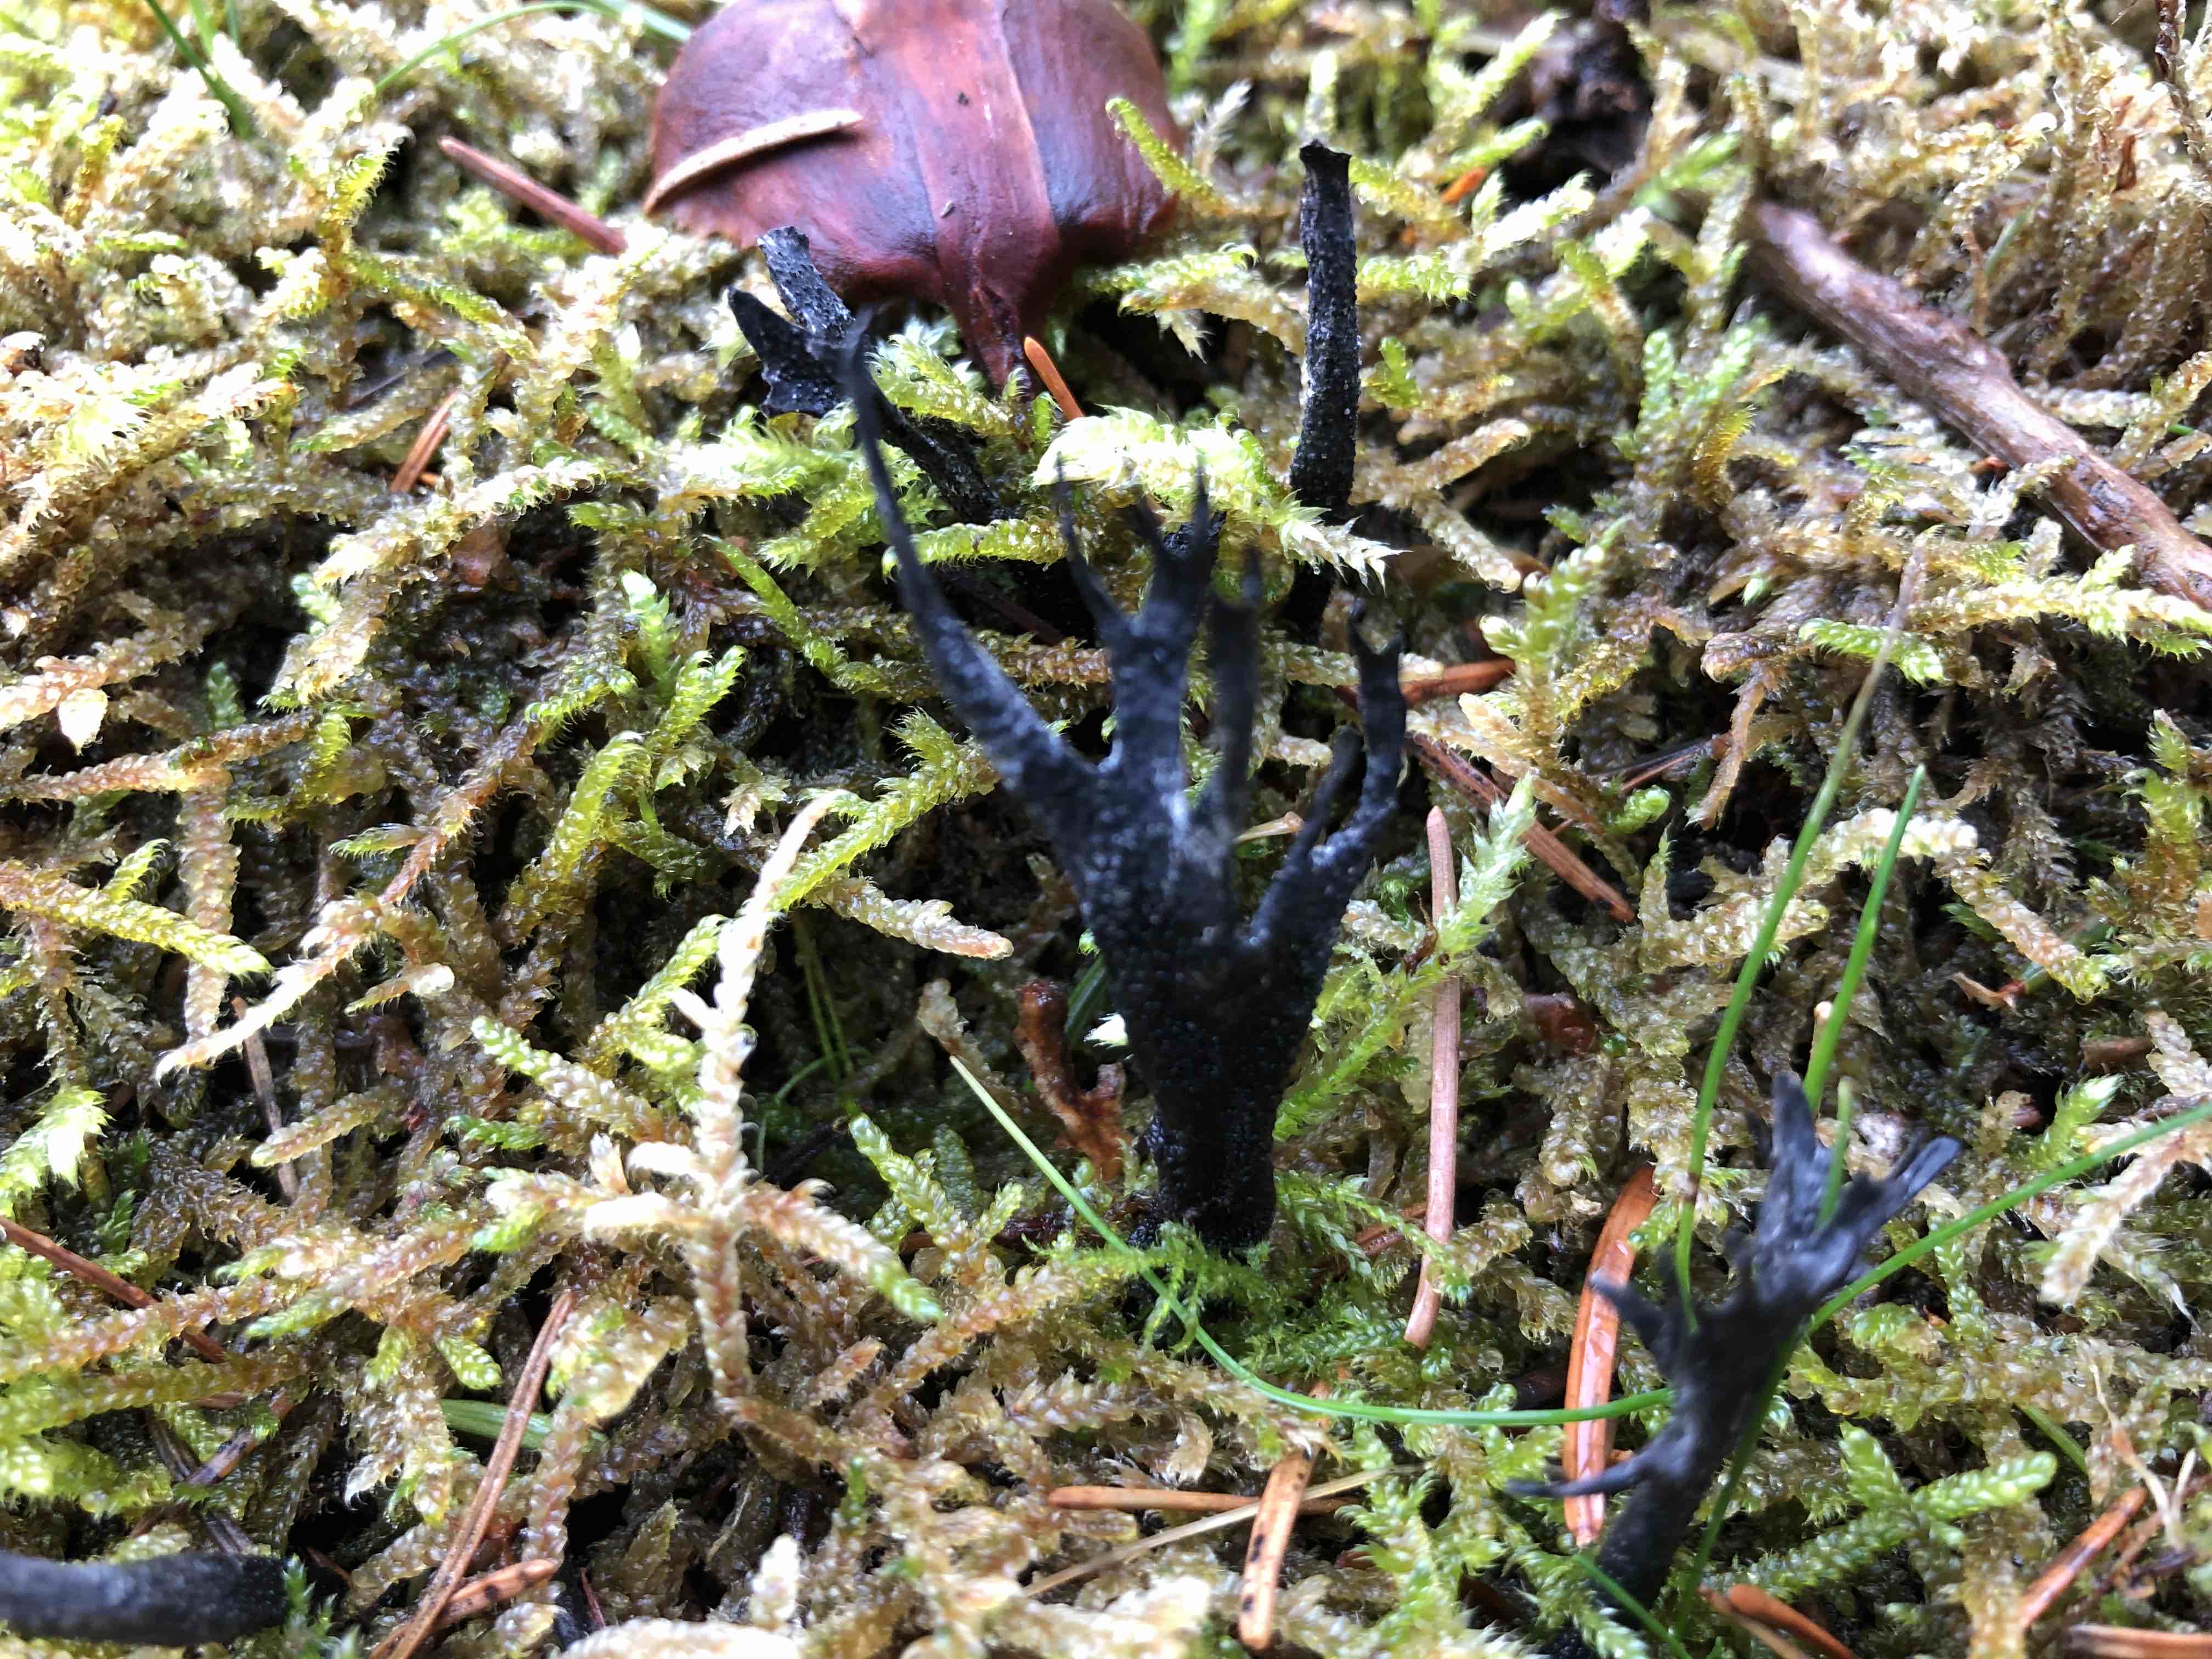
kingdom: Fungi
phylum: Ascomycota
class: Sordariomycetes
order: Xylariales
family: Xylariaceae
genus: Xylaria
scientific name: Xylaria hypoxylon
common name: grenet stødsvamp
